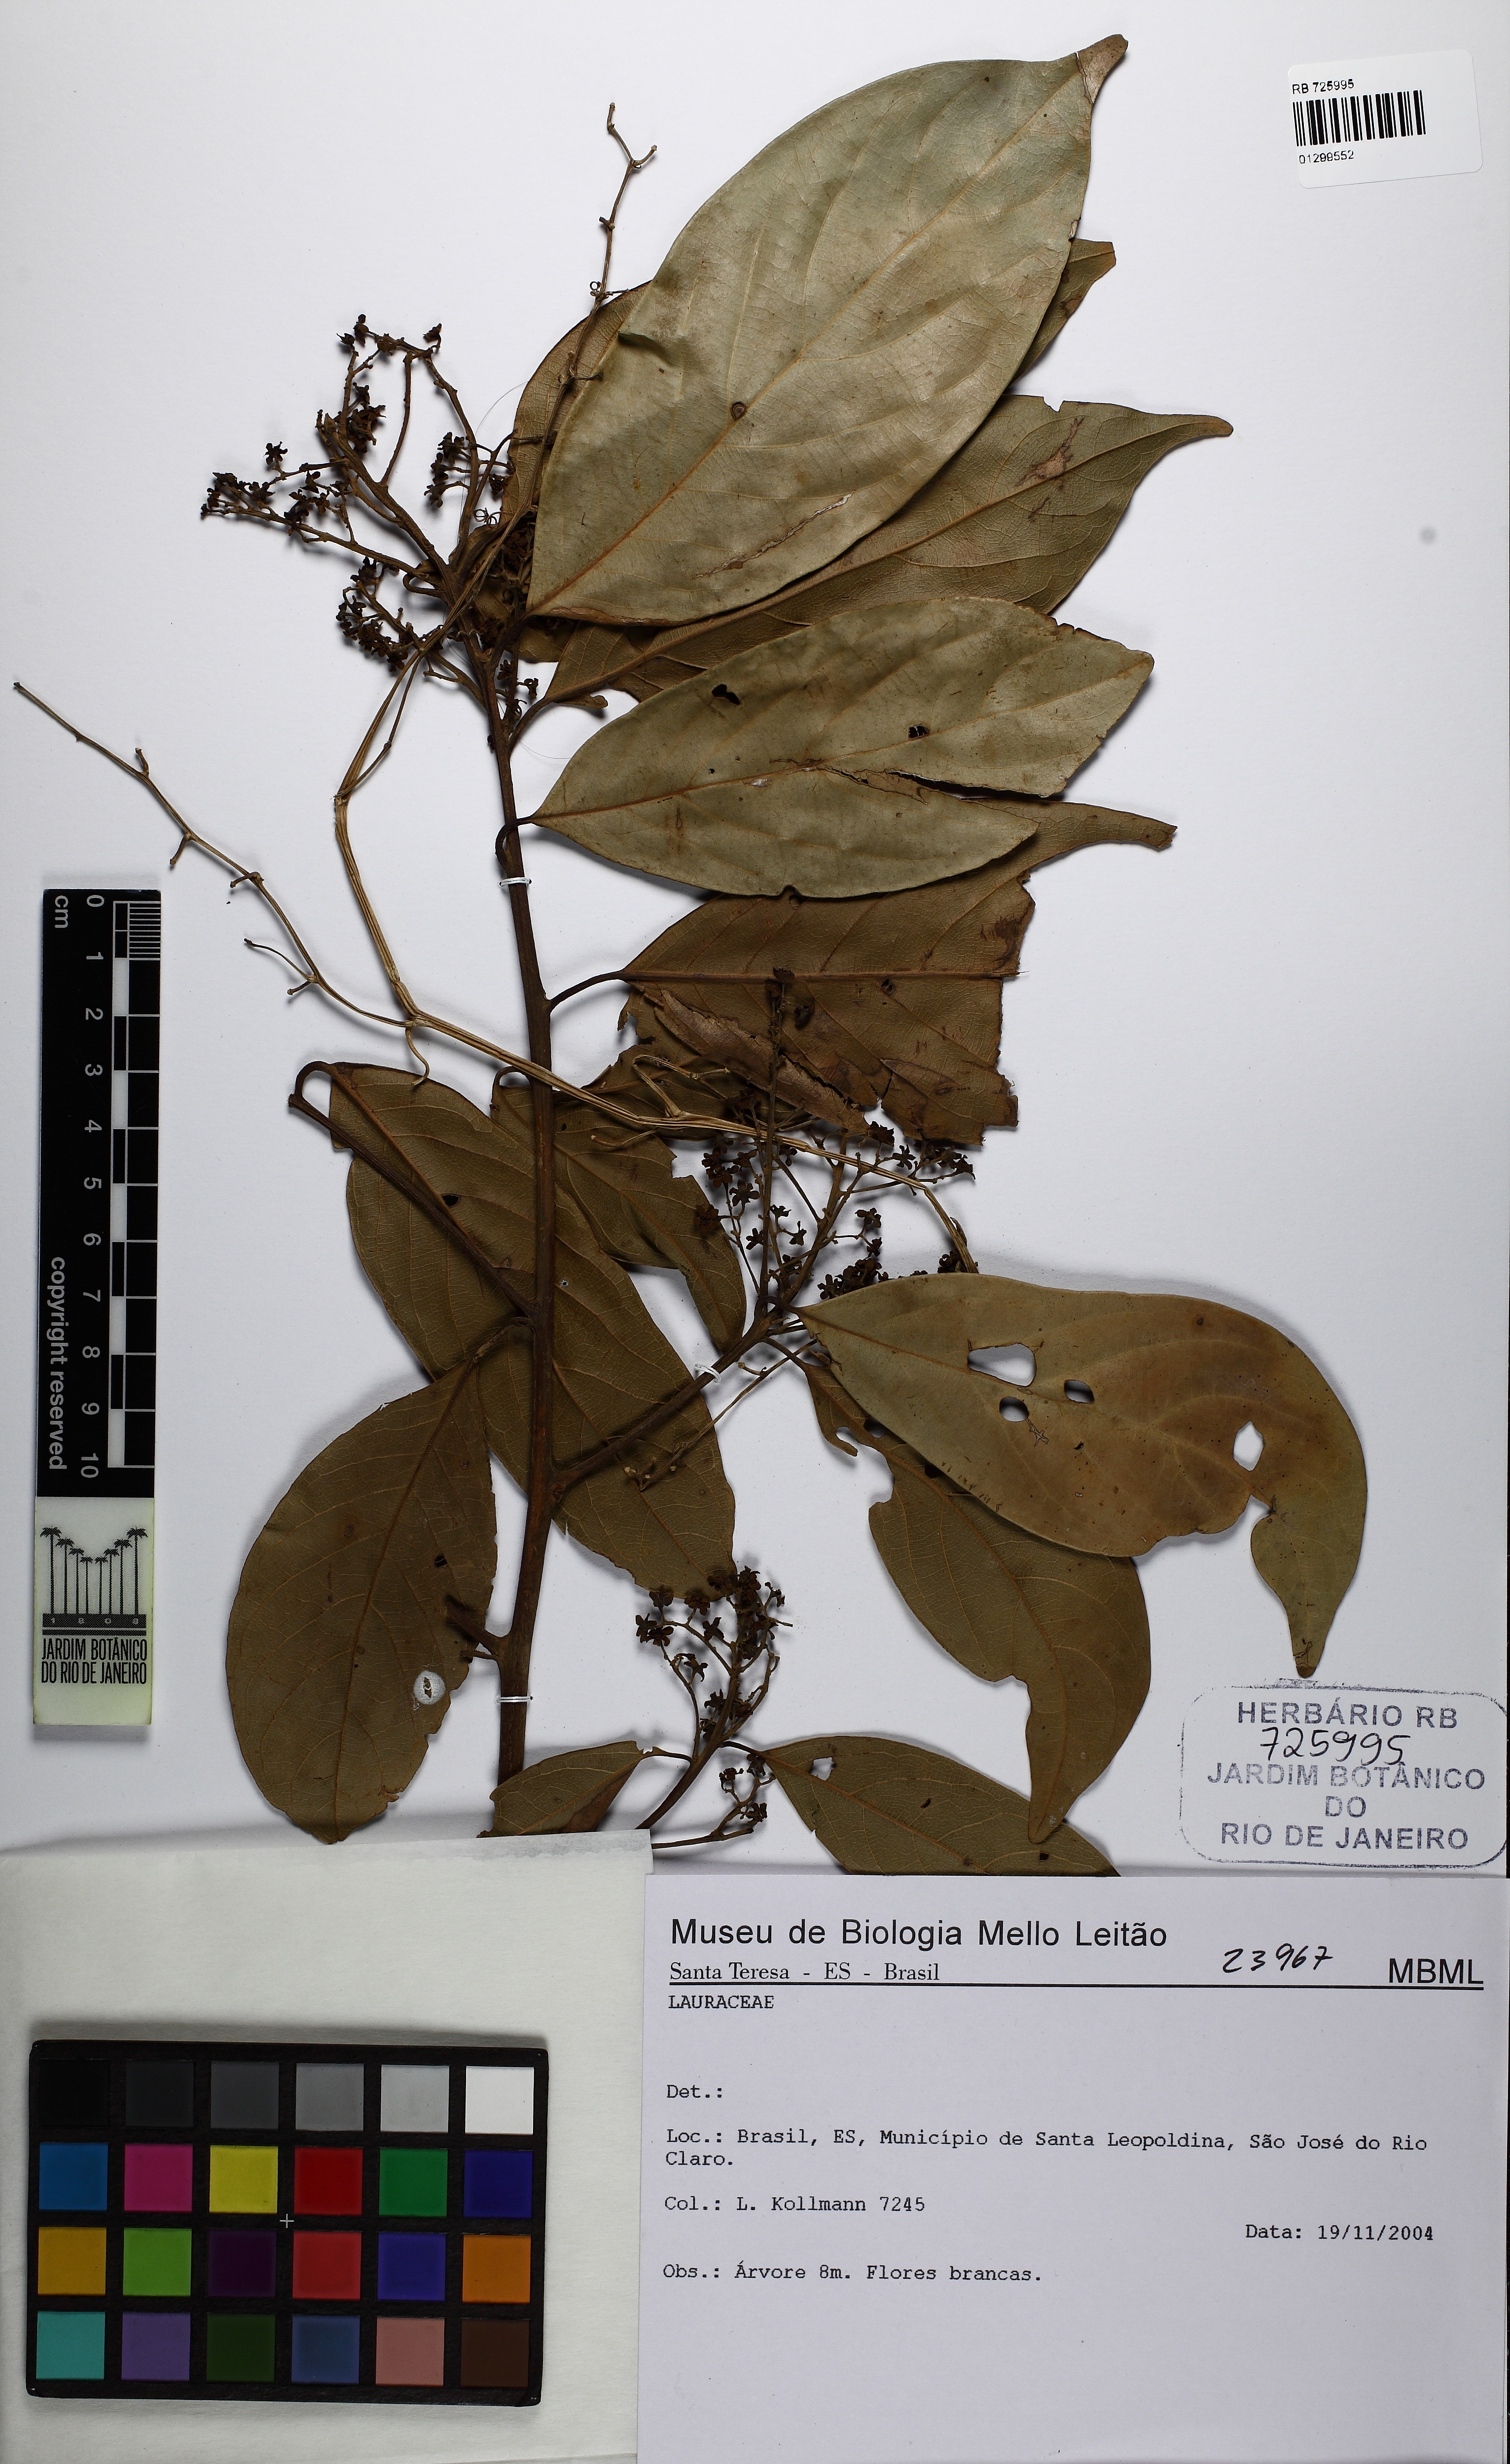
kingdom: Plantae
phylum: Tracheophyta
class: Magnoliopsida
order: Laurales
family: Lauraceae
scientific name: Lauraceae
